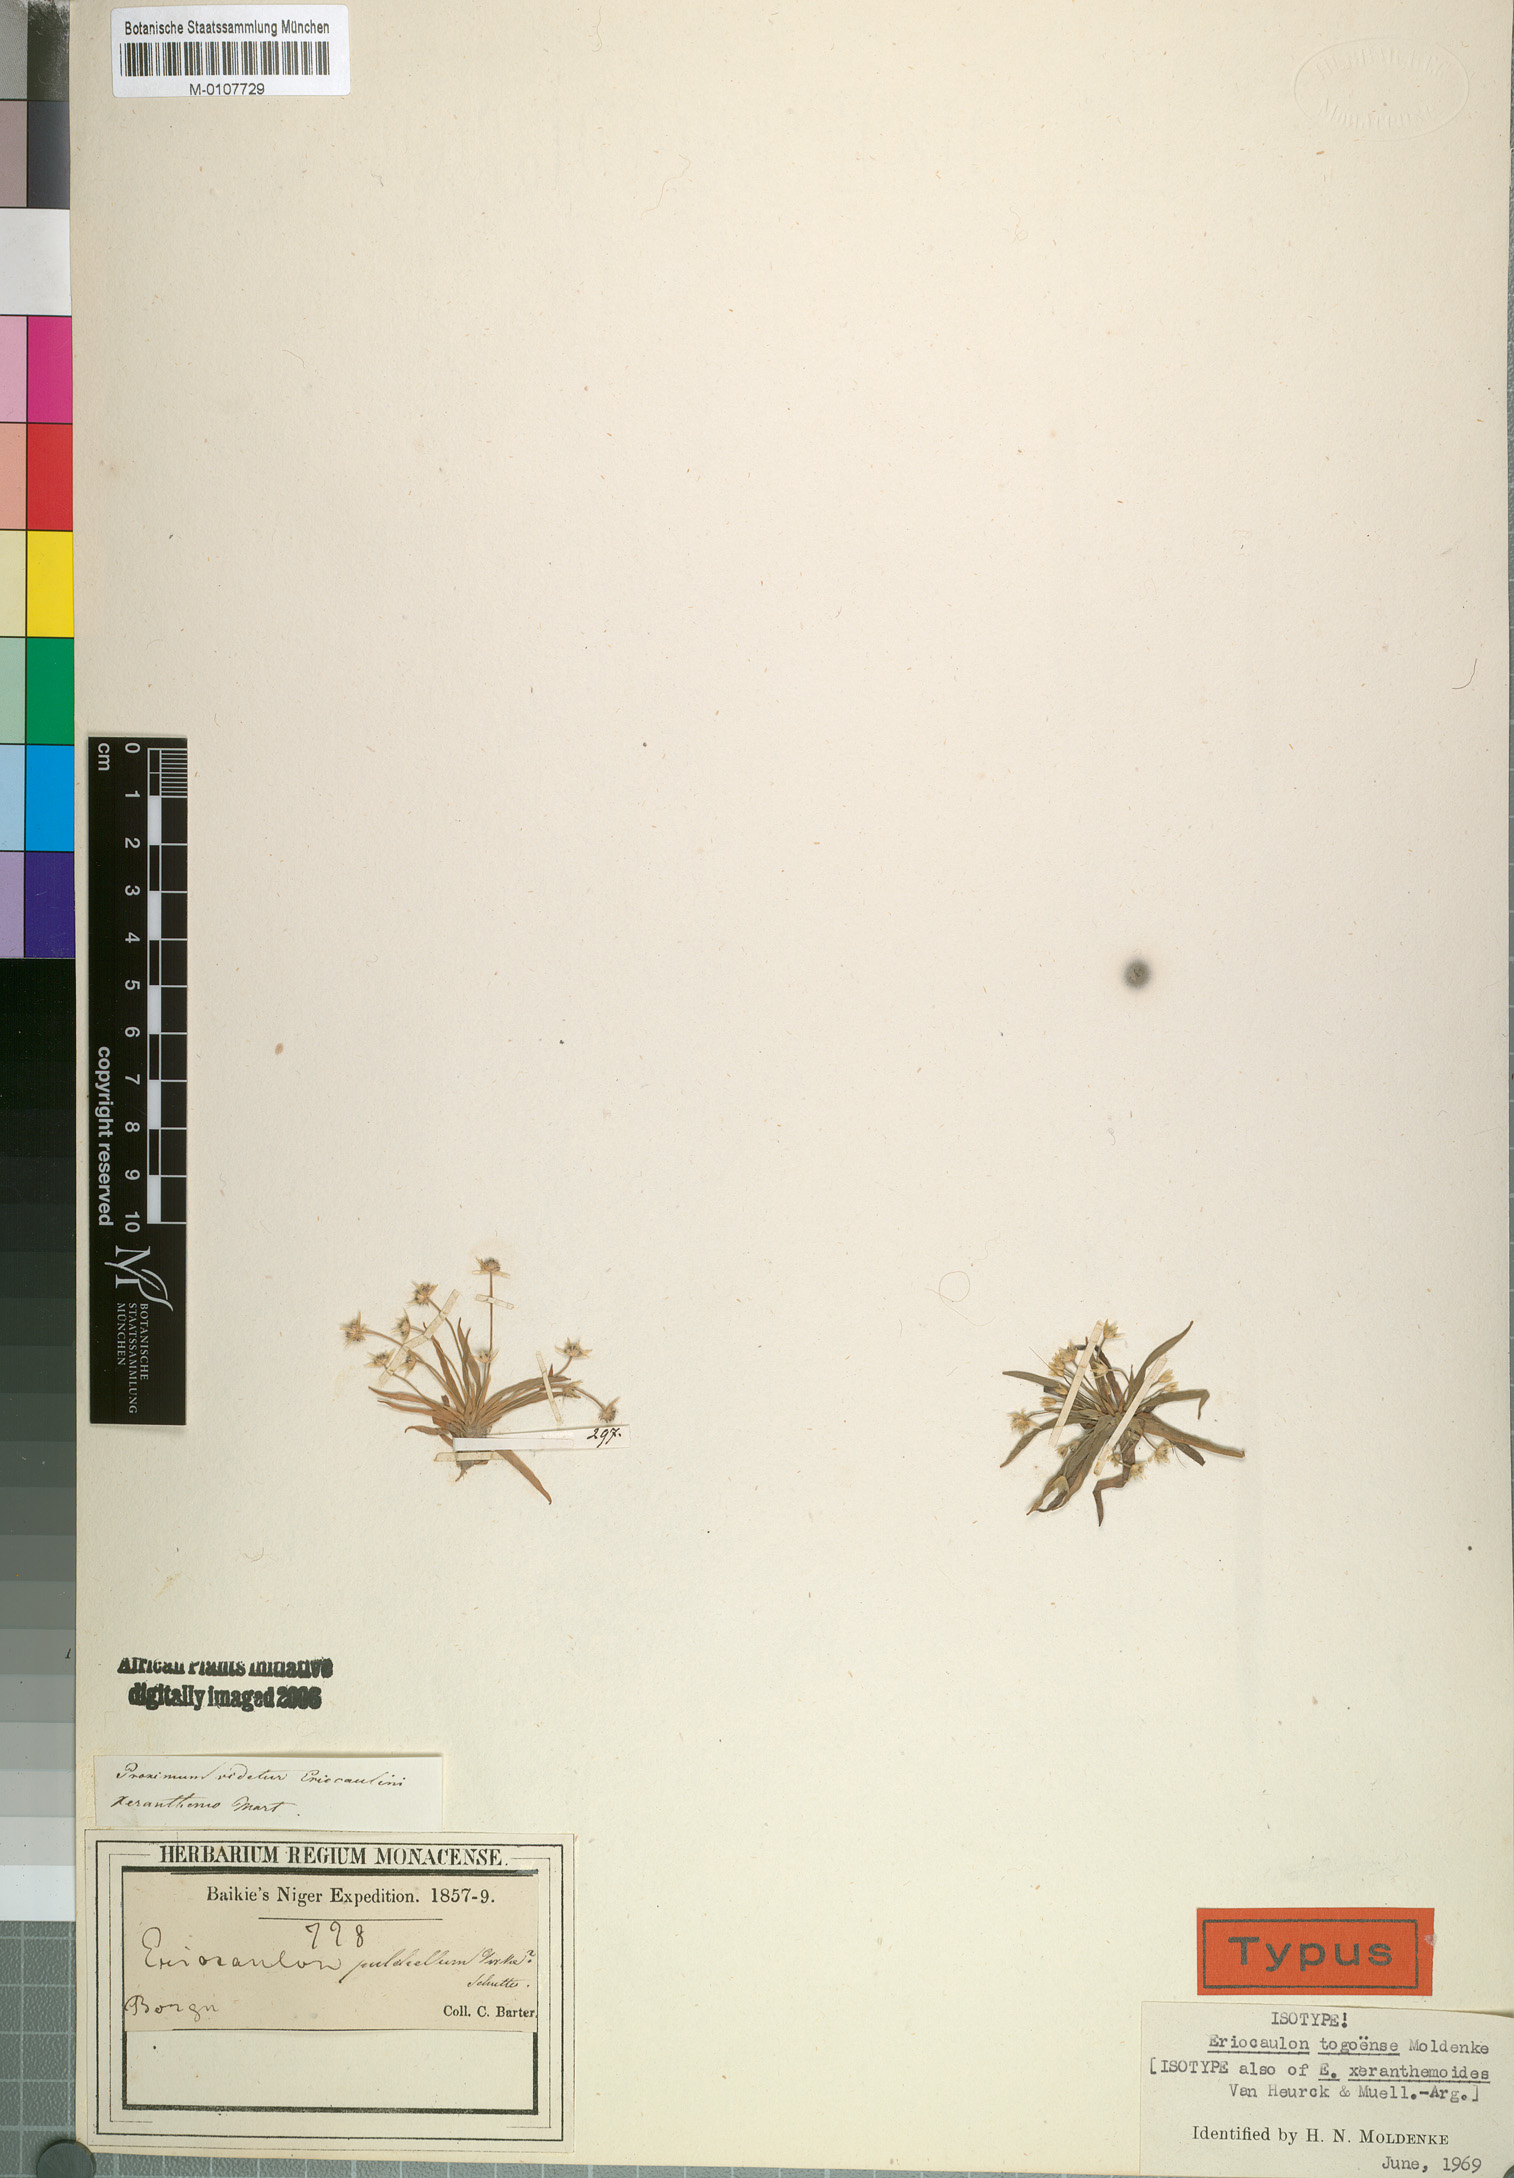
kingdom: Plantae
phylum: Tracheophyta
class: Liliopsida
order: Poales
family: Eriocaulaceae
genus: Eriocaulon
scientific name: Eriocaulon togoense
